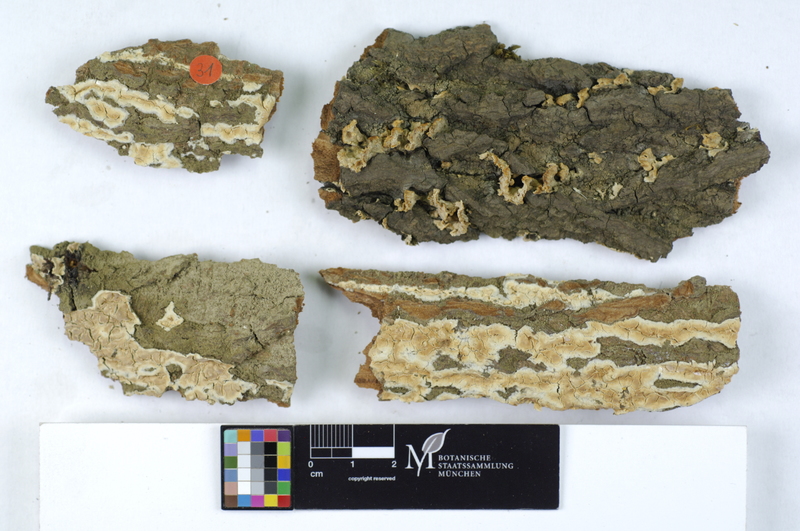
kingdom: Fungi
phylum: Basidiomycota
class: Agaricomycetes
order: Agaricales
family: Physalacriaceae
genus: Cylindrobasidium
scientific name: Cylindrobasidium evolvens
